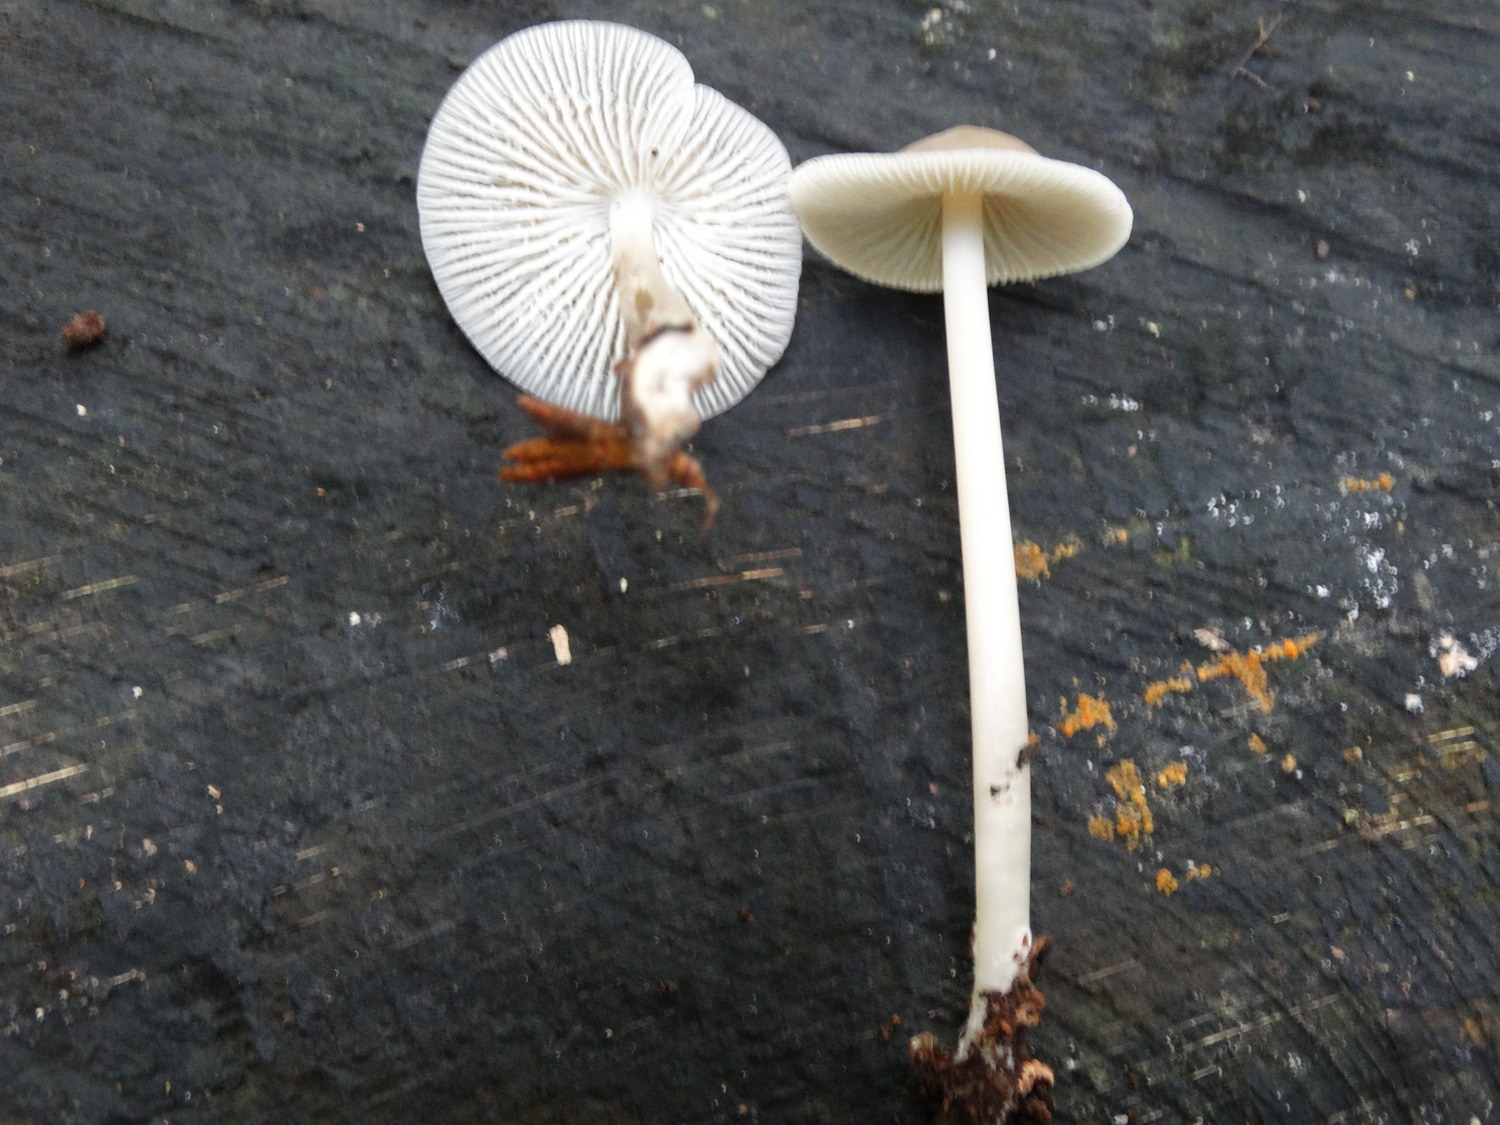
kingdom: Fungi
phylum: Basidiomycota
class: Agaricomycetes
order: Agaricales
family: Mycenaceae
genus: Mycena
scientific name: Mycena galericulata
